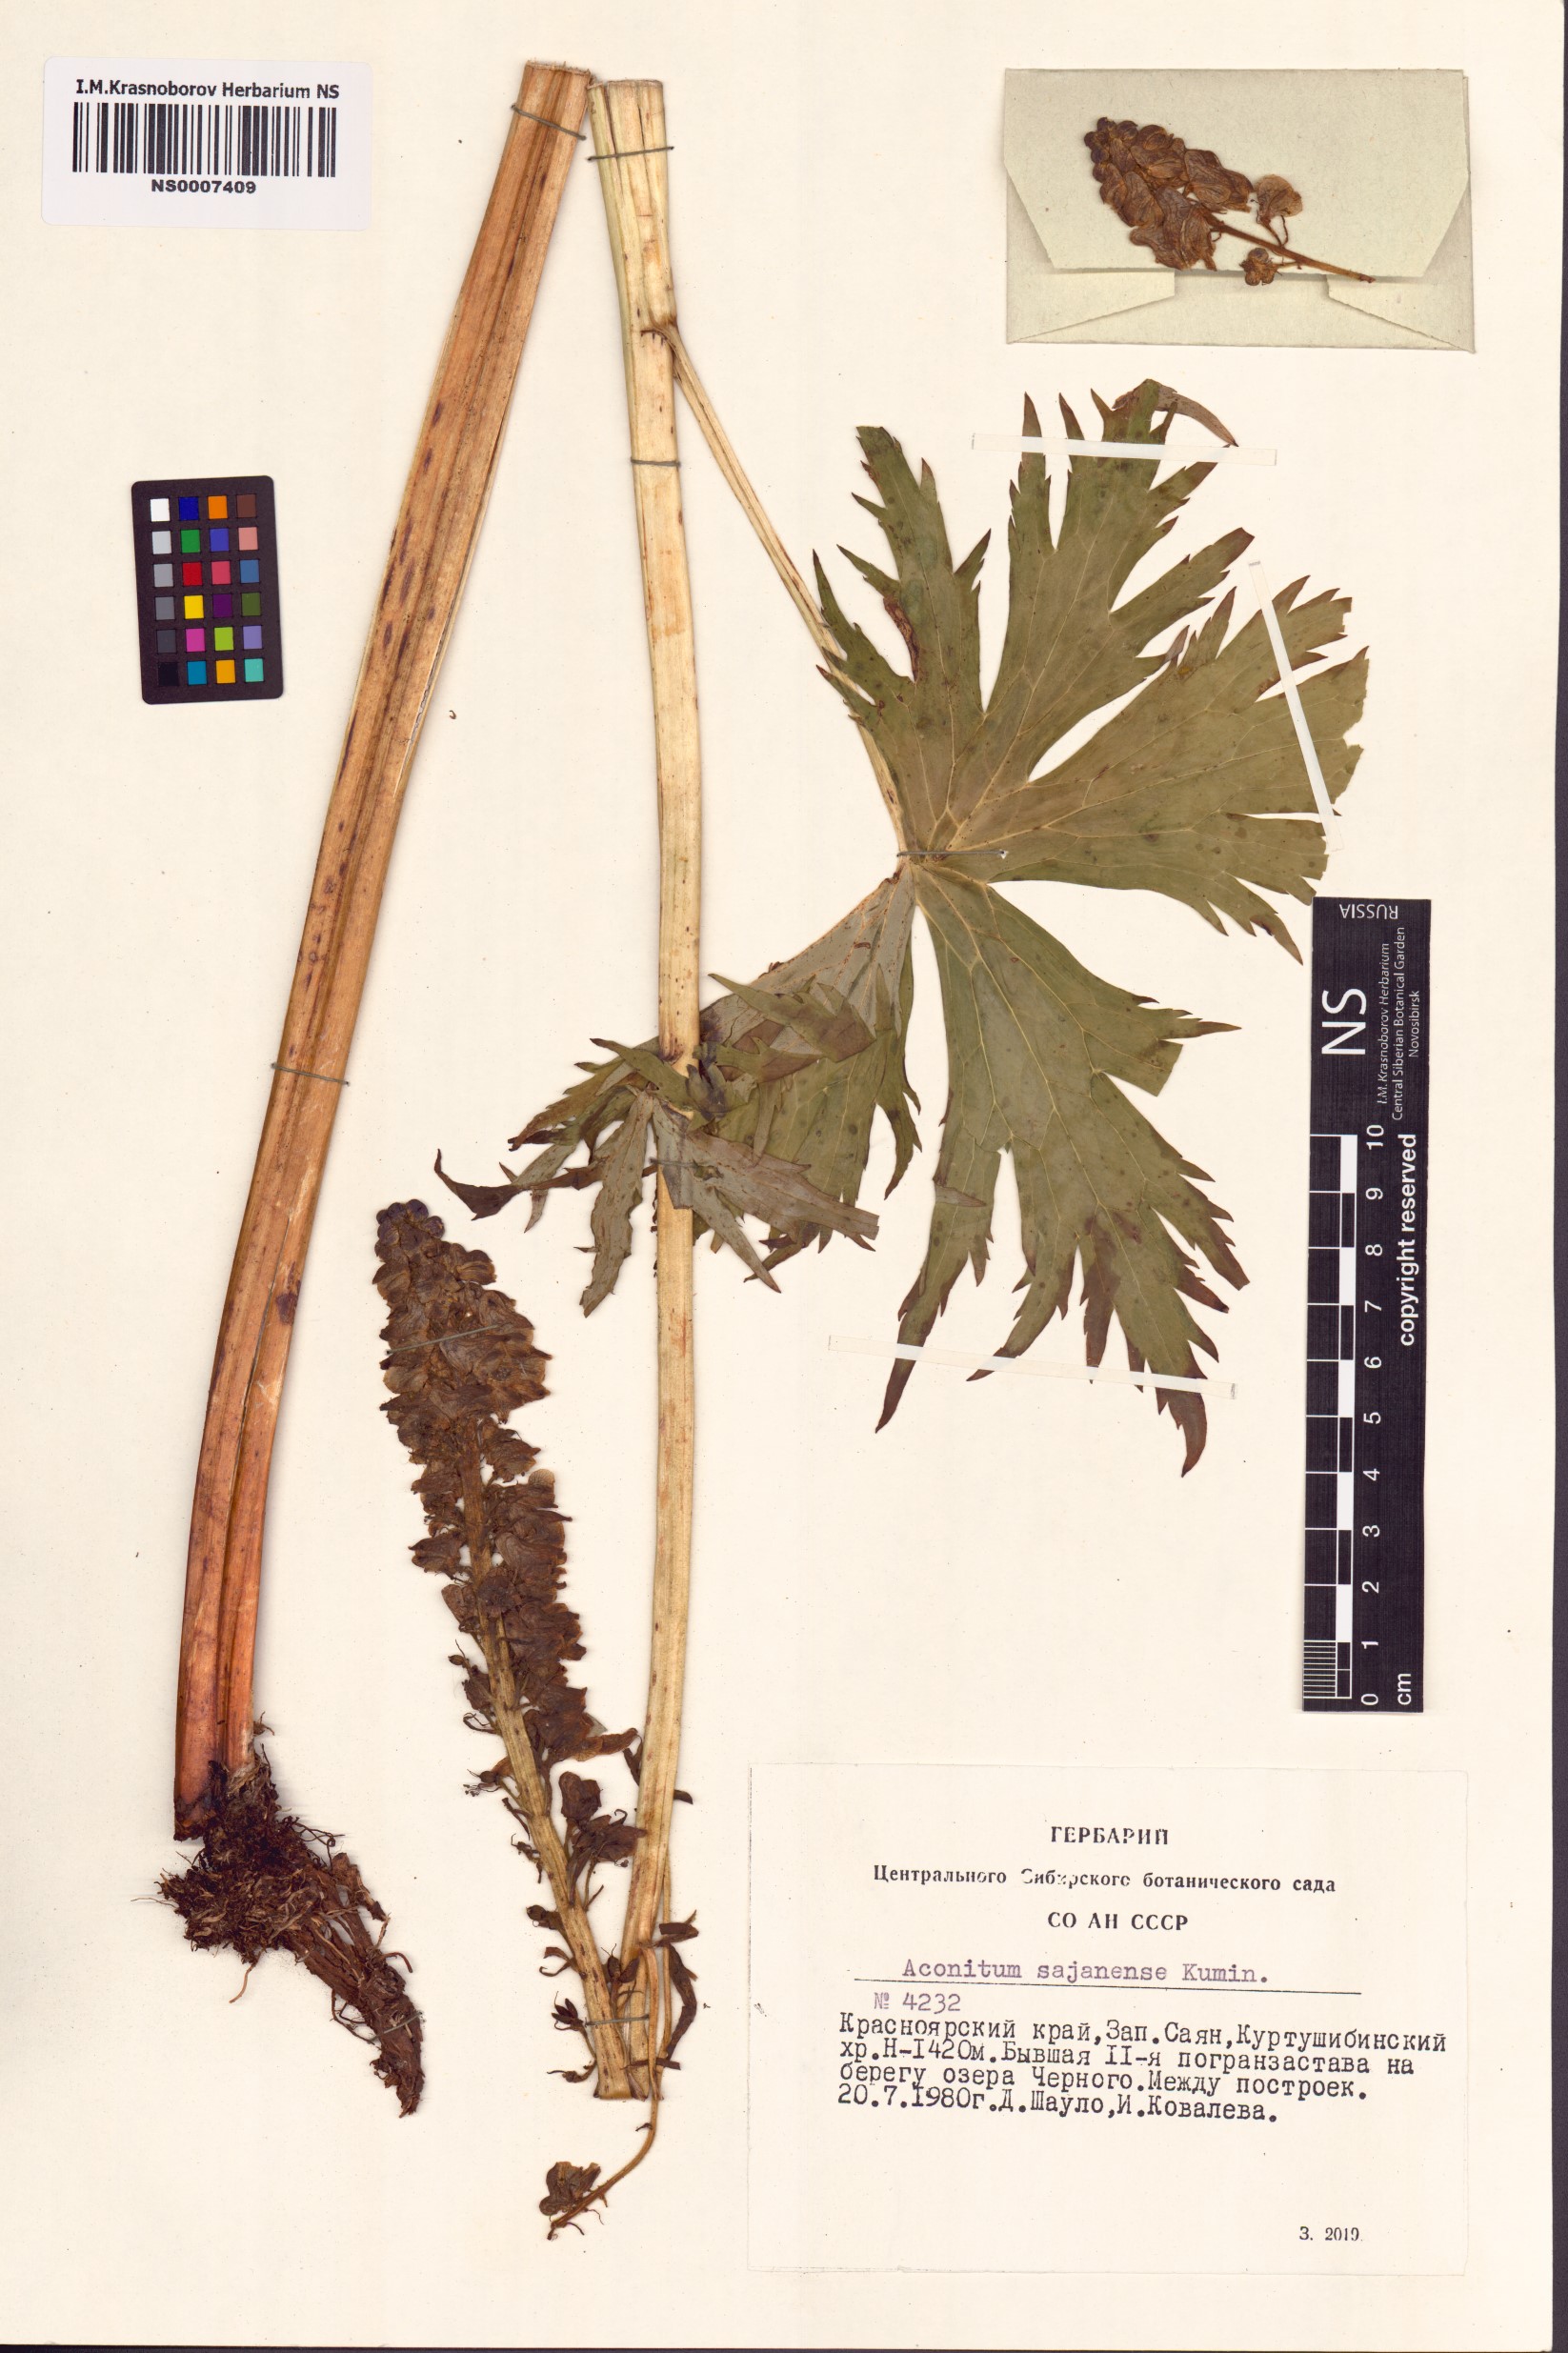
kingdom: Plantae
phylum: Tracheophyta
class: Magnoliopsida
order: Ranunculales
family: Ranunculaceae
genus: Aconitum
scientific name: Aconitum sajanense
